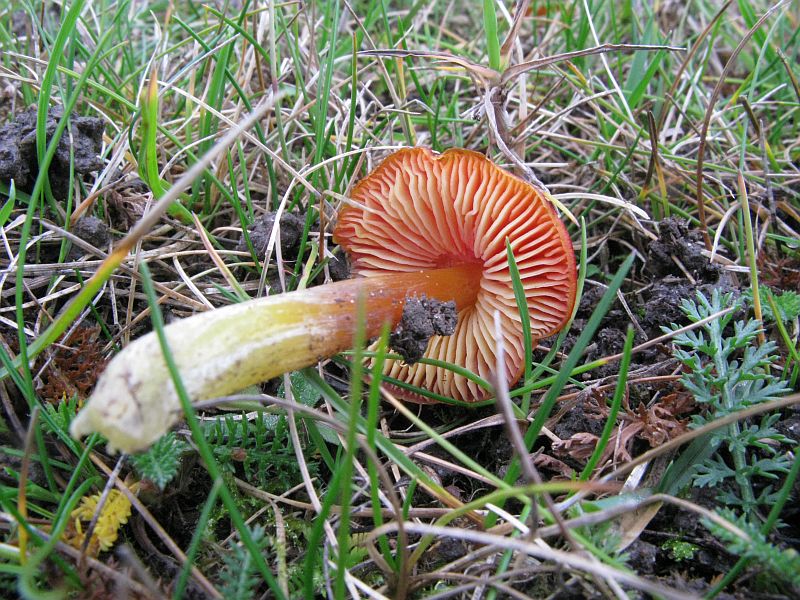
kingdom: Fungi
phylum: Basidiomycota
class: Agaricomycetes
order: Agaricales
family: Hygrophoraceae
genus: Hygrocybe
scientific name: Hygrocybe conica
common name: kegle-vokshat
